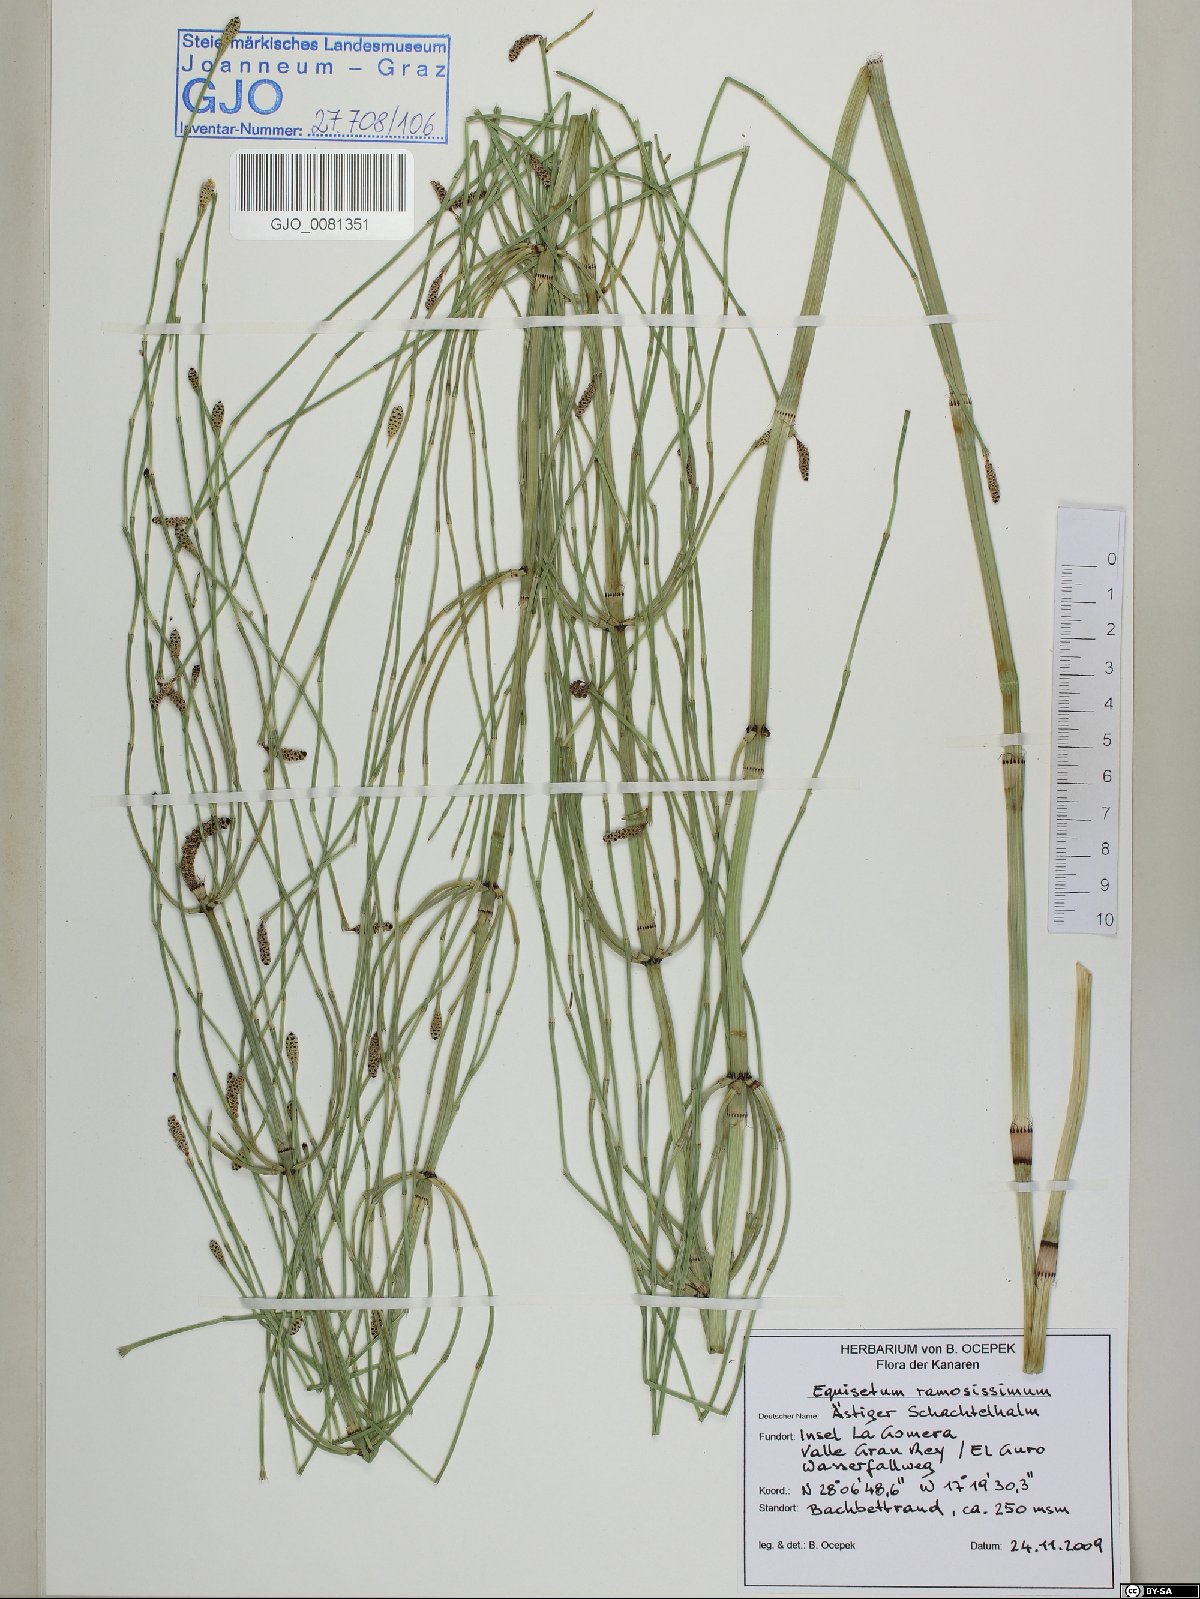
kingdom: Plantae
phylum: Tracheophyta
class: Polypodiopsida
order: Equisetales
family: Equisetaceae
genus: Equisetum
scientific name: Equisetum ramosissimum
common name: Branched horsetail
